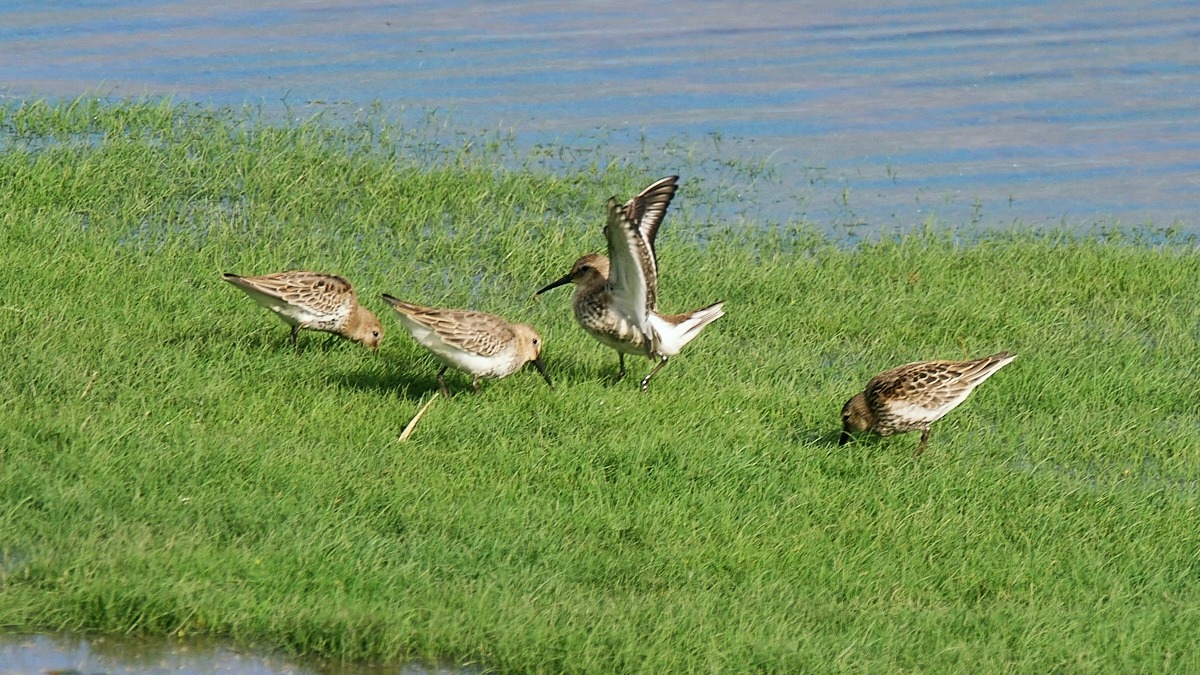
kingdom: Animalia
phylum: Chordata
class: Aves
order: Charadriiformes
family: Scolopacidae
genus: Calidris
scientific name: Calidris alpina
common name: Almindelig ryle
